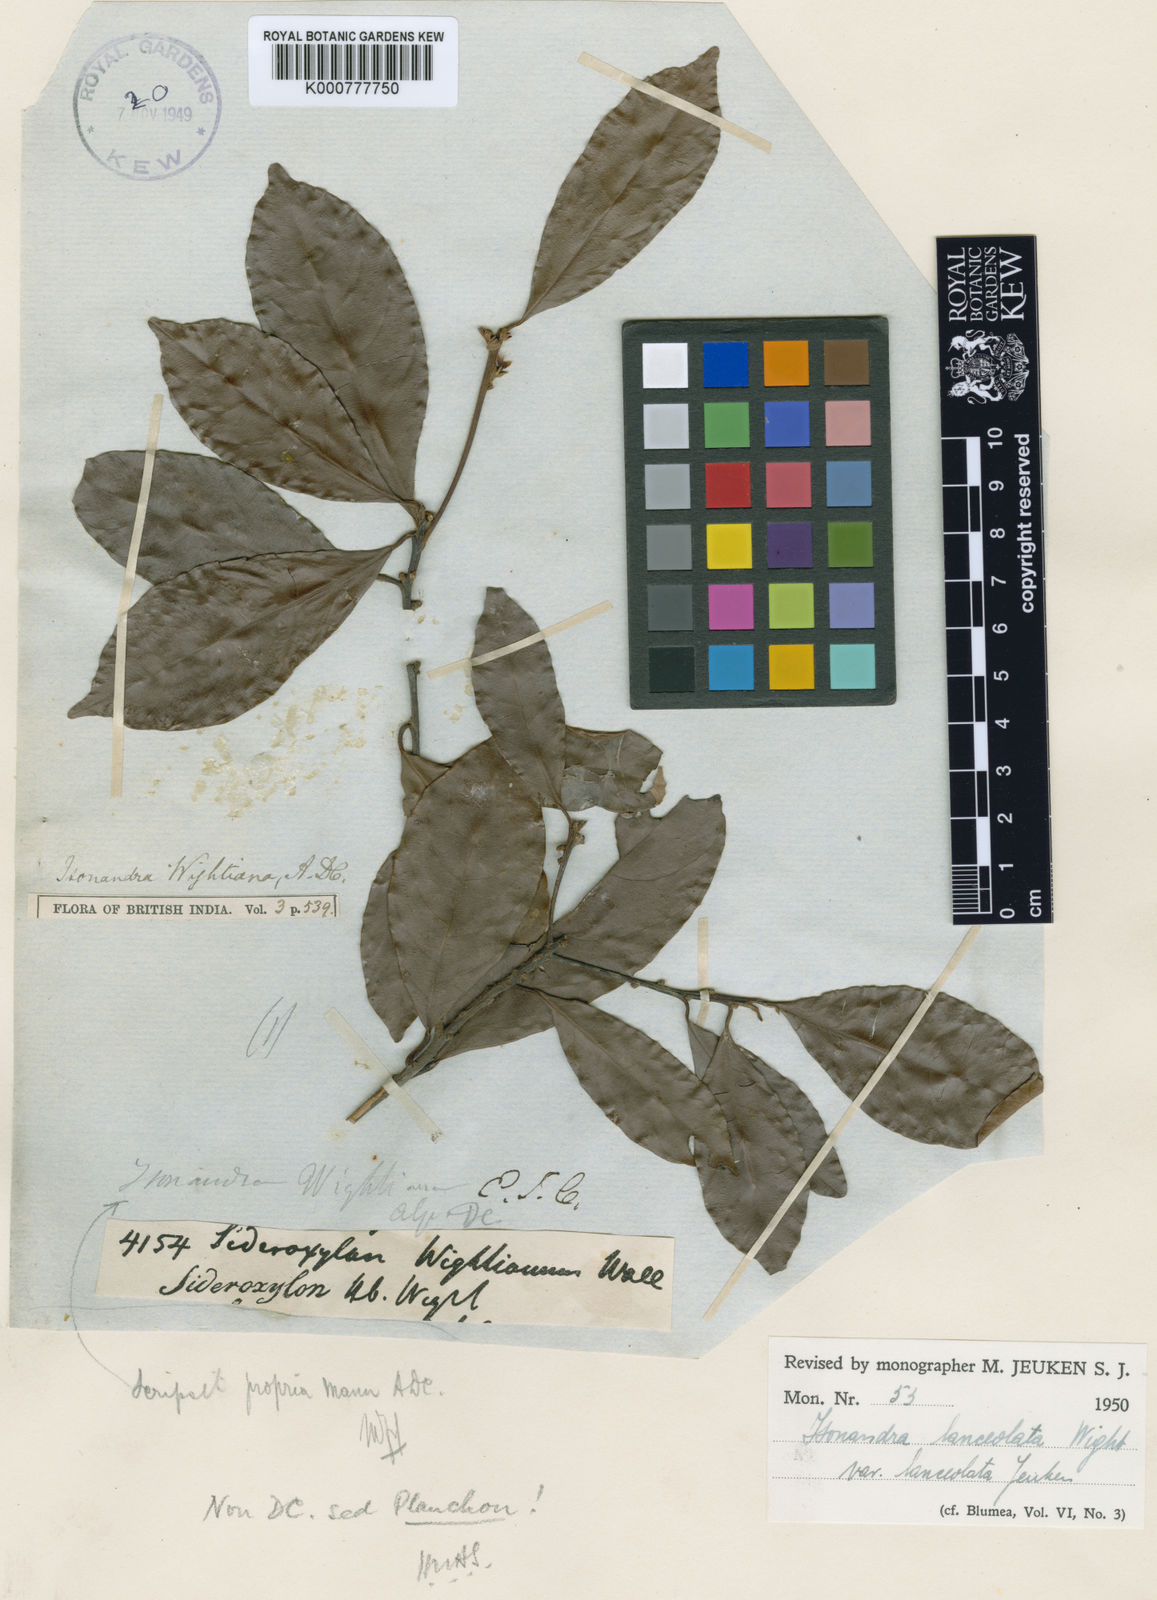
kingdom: Plantae
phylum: Tracheophyta
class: Magnoliopsida
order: Ericales
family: Sapotaceae
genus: Isonandra
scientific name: Isonandra lanceolata
